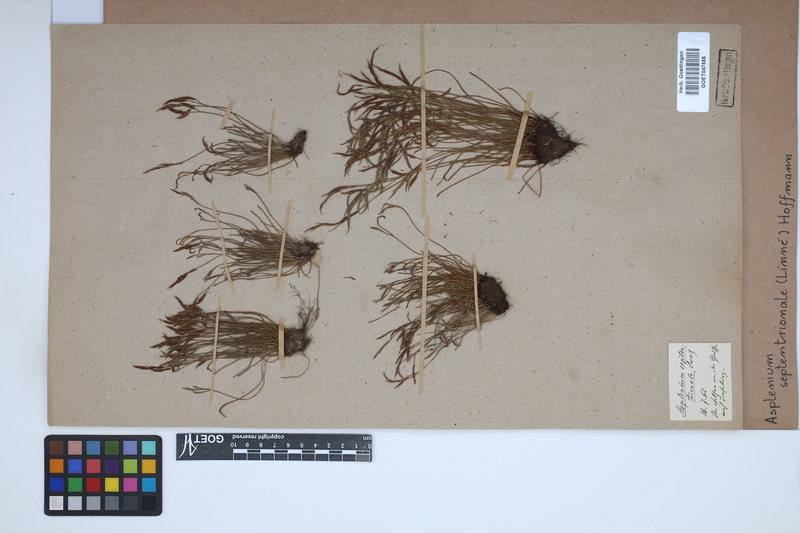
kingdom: Plantae
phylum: Tracheophyta
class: Polypodiopsida
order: Polypodiales
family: Aspleniaceae
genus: Asplenium
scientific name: Asplenium septentrionale
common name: Forked spleenwort
